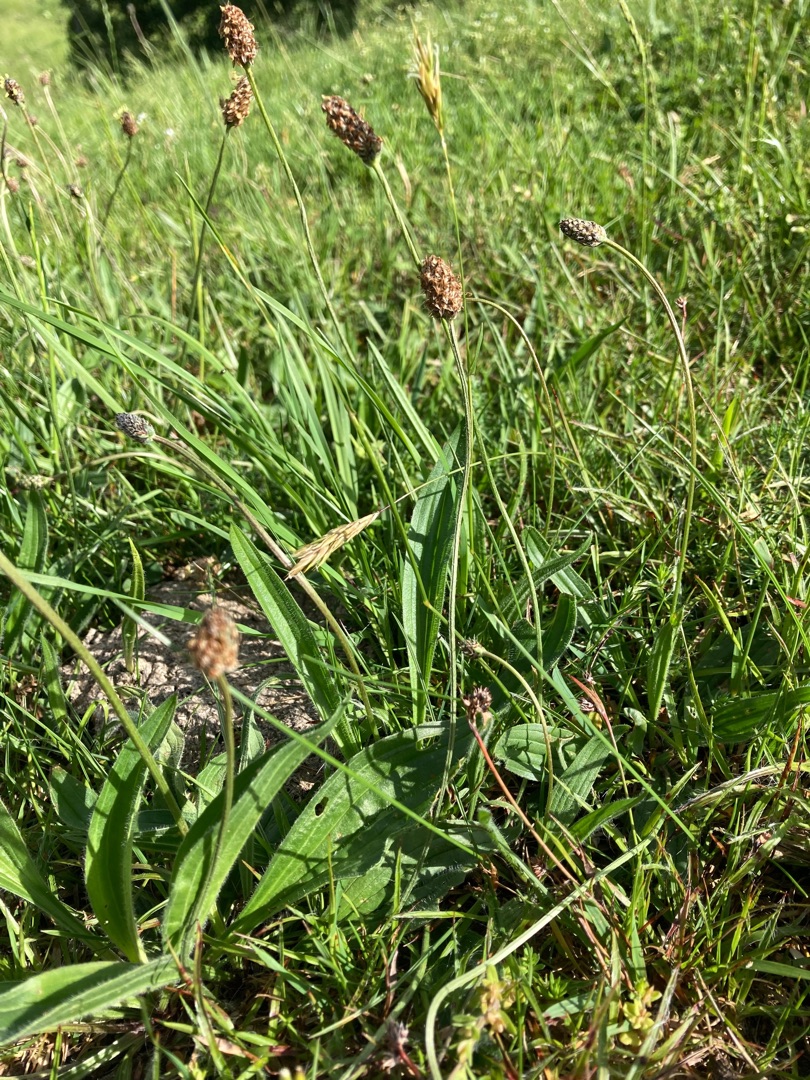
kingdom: Plantae
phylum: Tracheophyta
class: Magnoliopsida
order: Lamiales
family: Plantaginaceae
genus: Plantago
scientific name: Plantago lanceolata
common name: Lancet-vejbred
